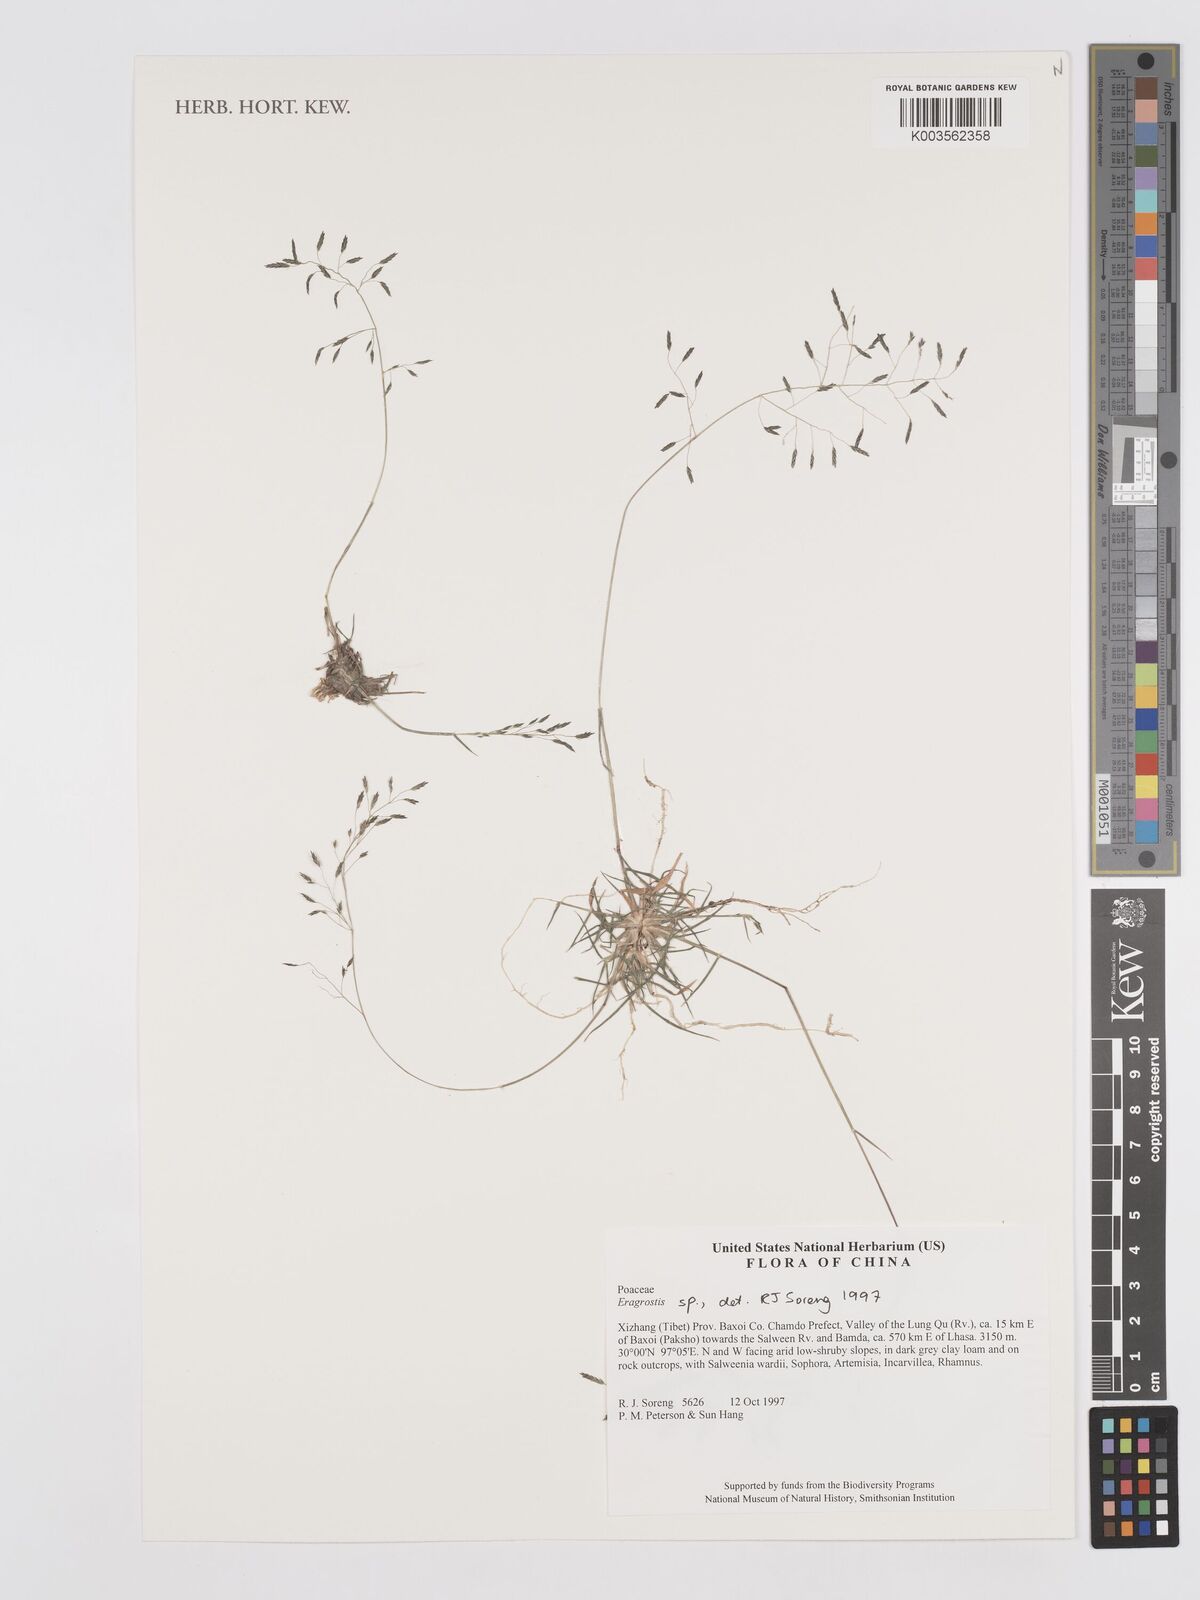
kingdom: Plantae
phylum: Tracheophyta
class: Liliopsida
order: Poales
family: Poaceae
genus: Eragrostis
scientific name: Eragrostis
